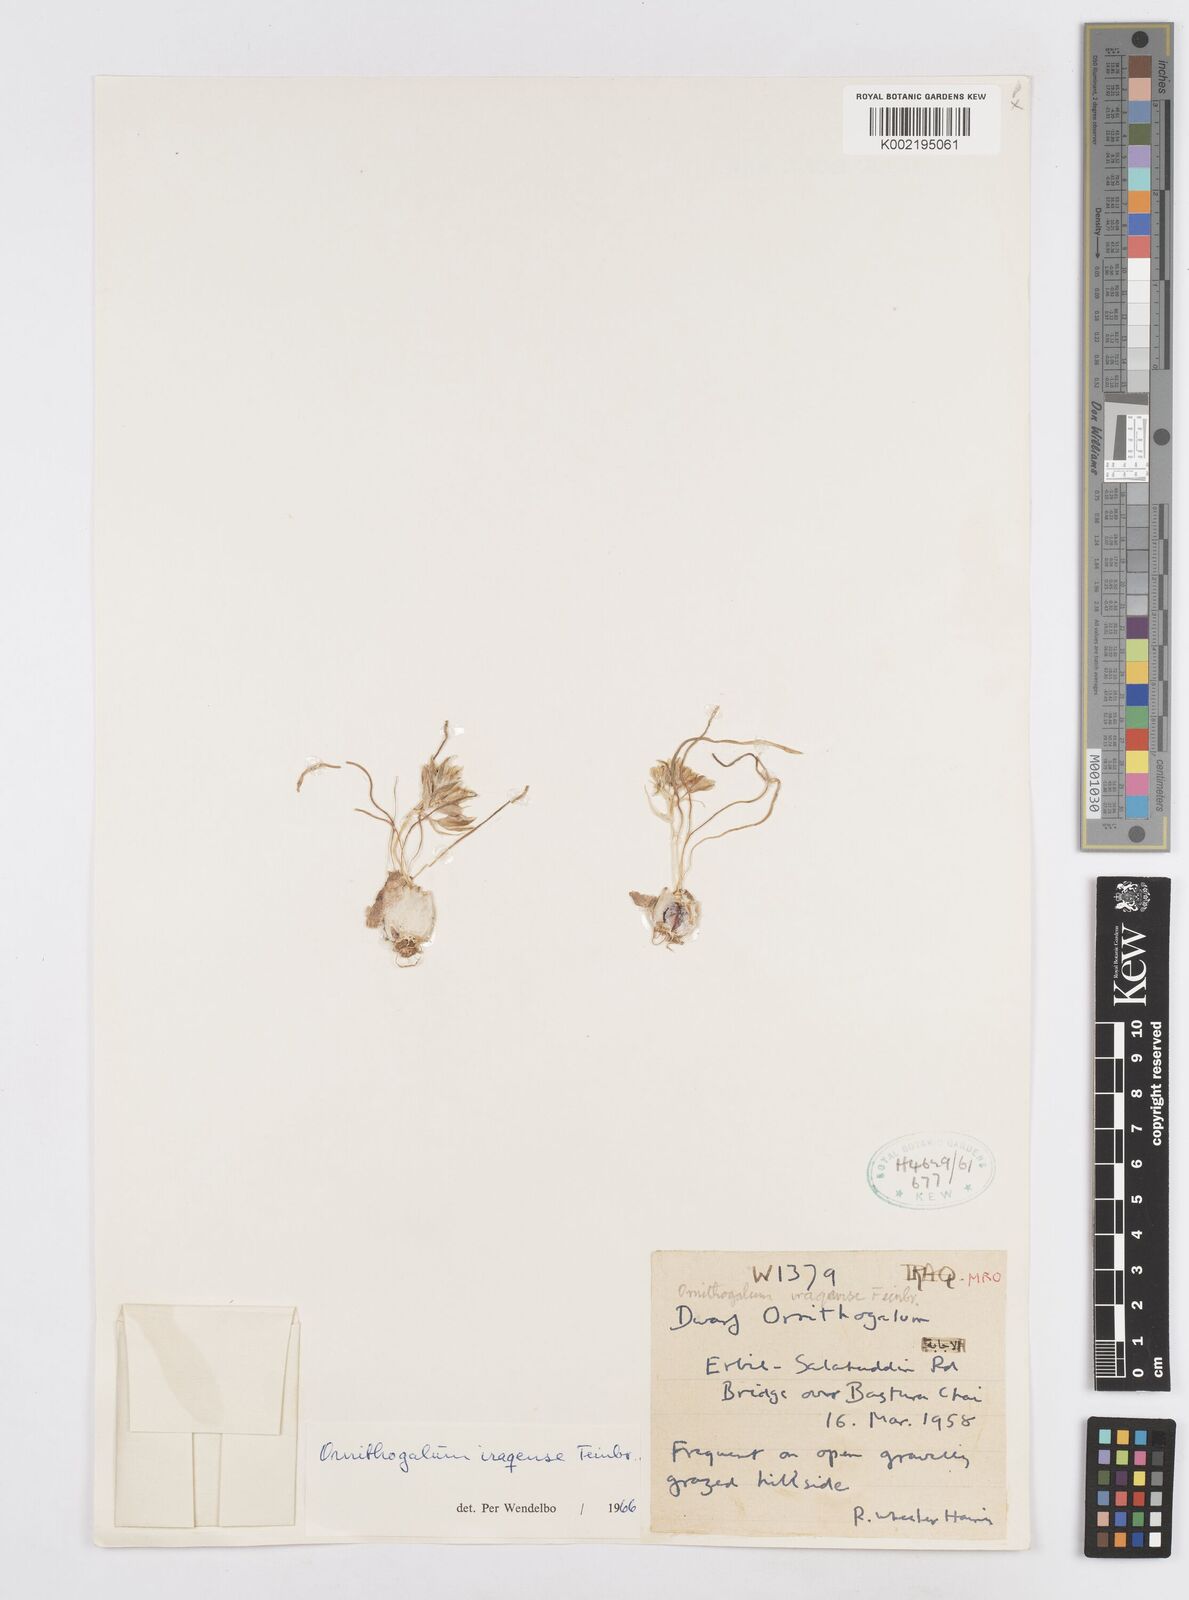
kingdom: Plantae
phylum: Tracheophyta
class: Liliopsida
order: Asparagales
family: Asparagaceae
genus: Ornithogalum
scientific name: Ornithogalum iraqense
